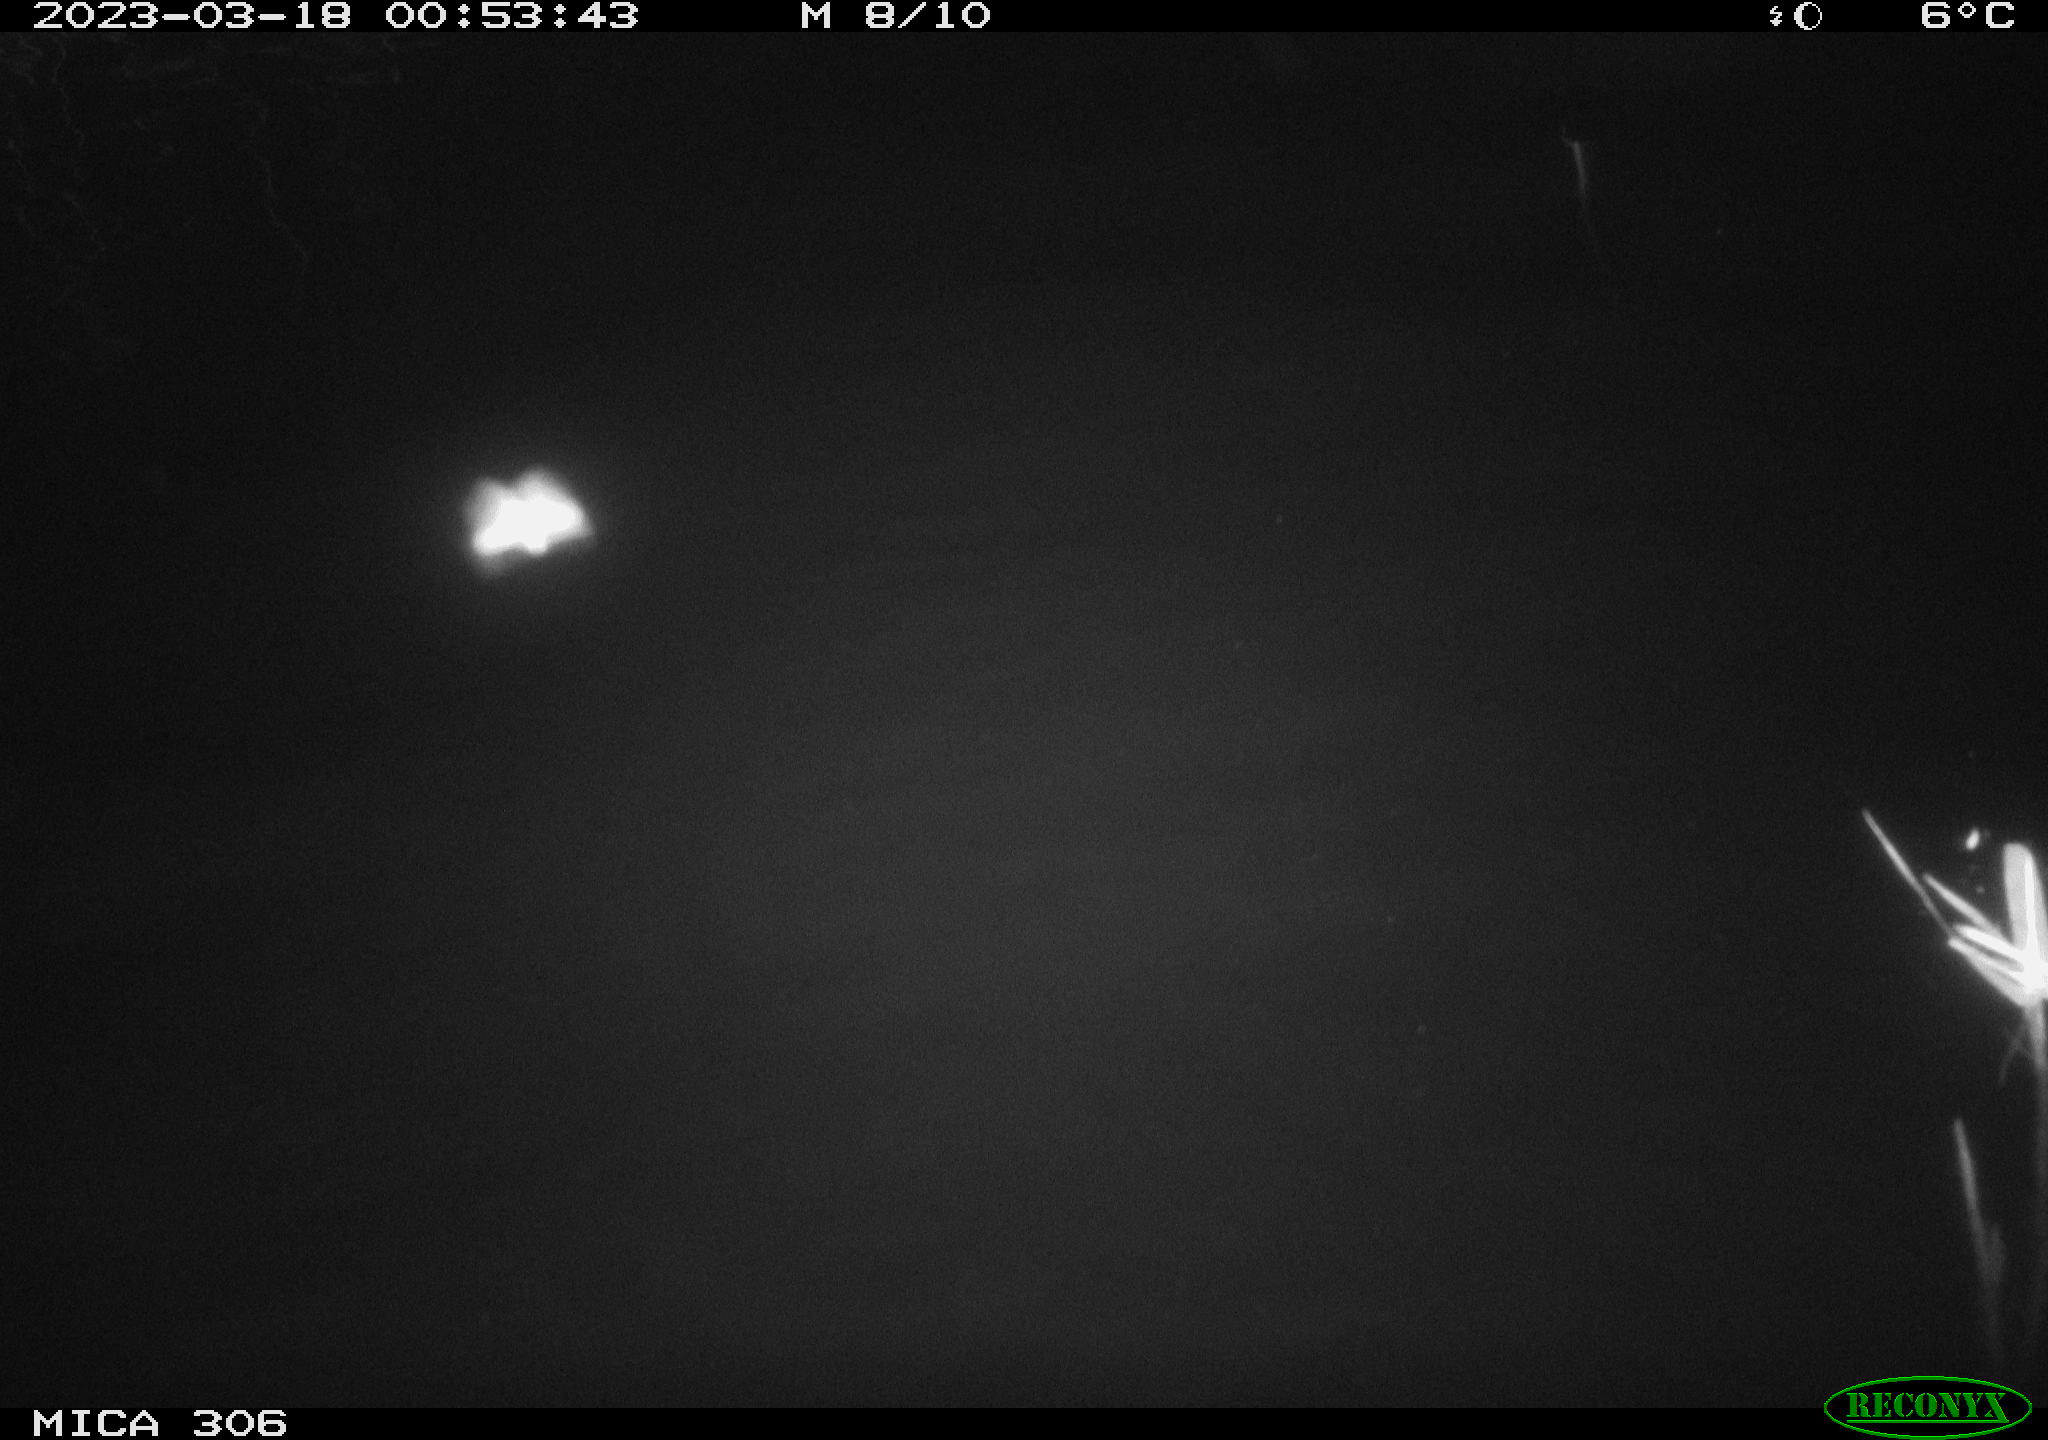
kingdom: Animalia
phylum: Chordata
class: Mammalia
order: Rodentia
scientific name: Rodentia
